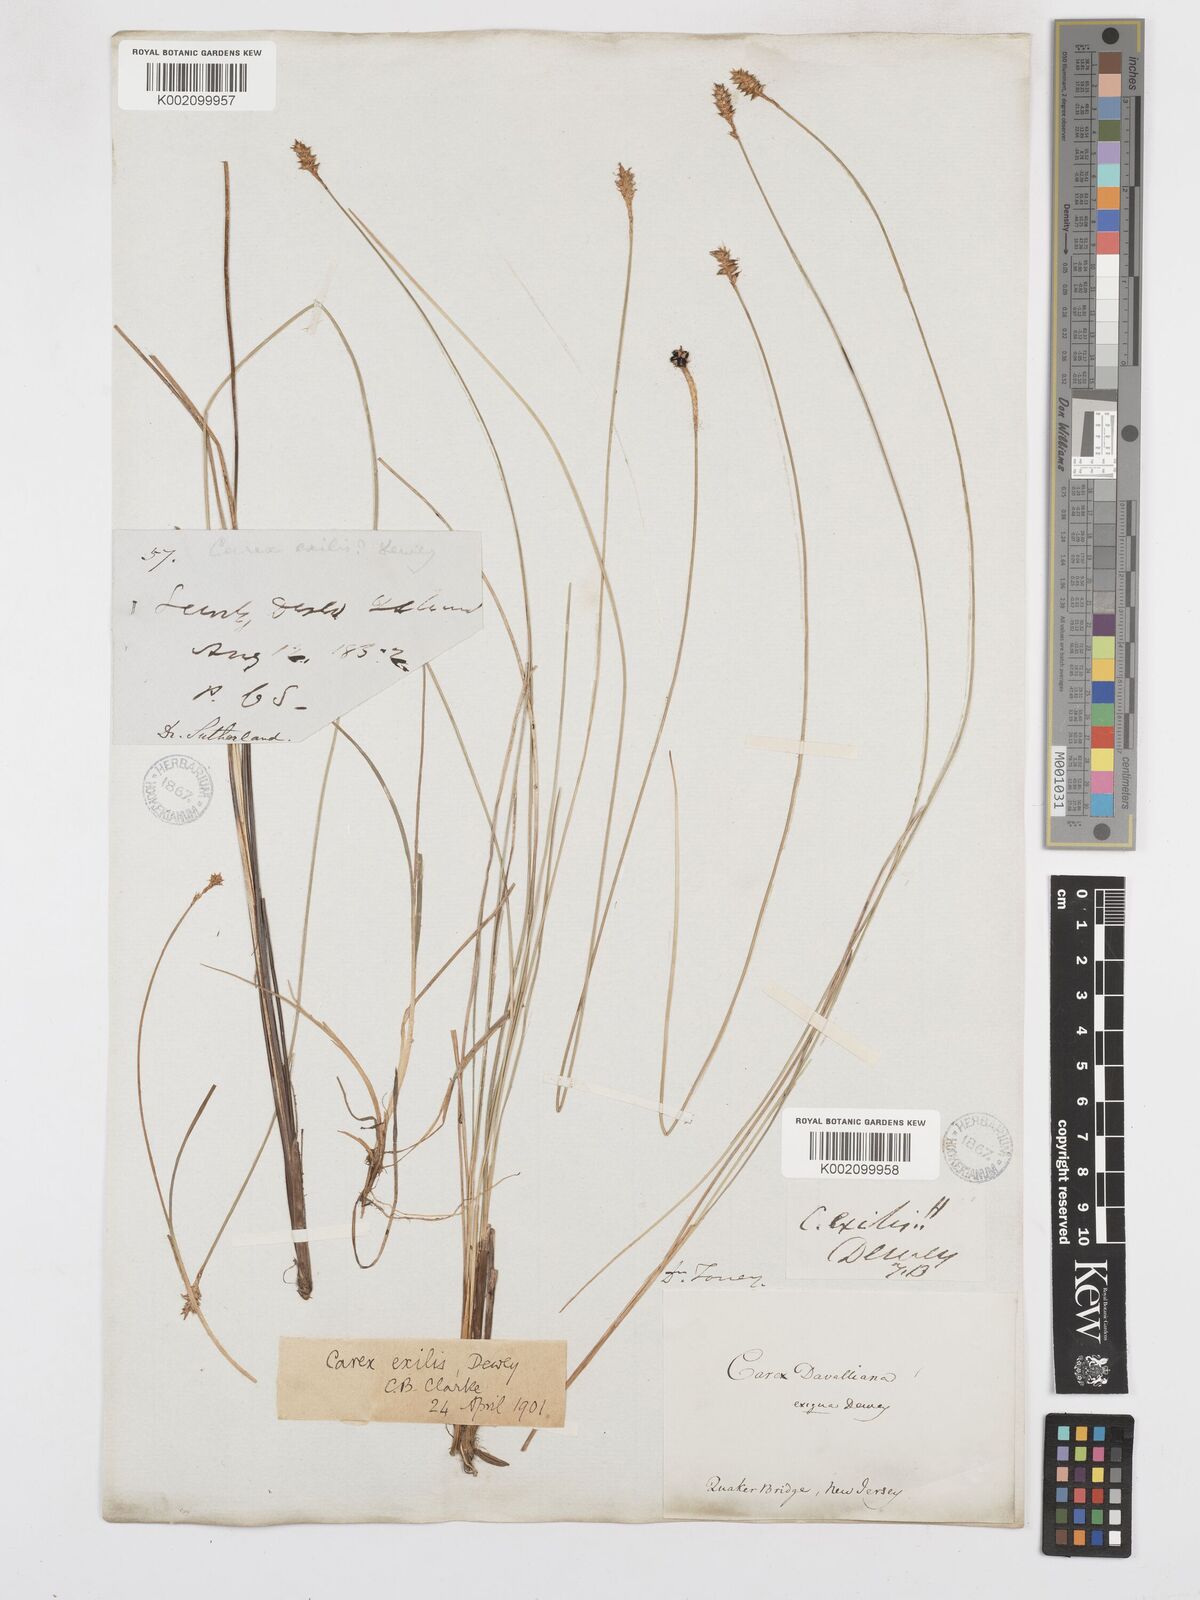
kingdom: Plantae
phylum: Tracheophyta
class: Liliopsida
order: Poales
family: Cyperaceae
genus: Carex
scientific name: Carex exilis
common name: Coastal sedge
